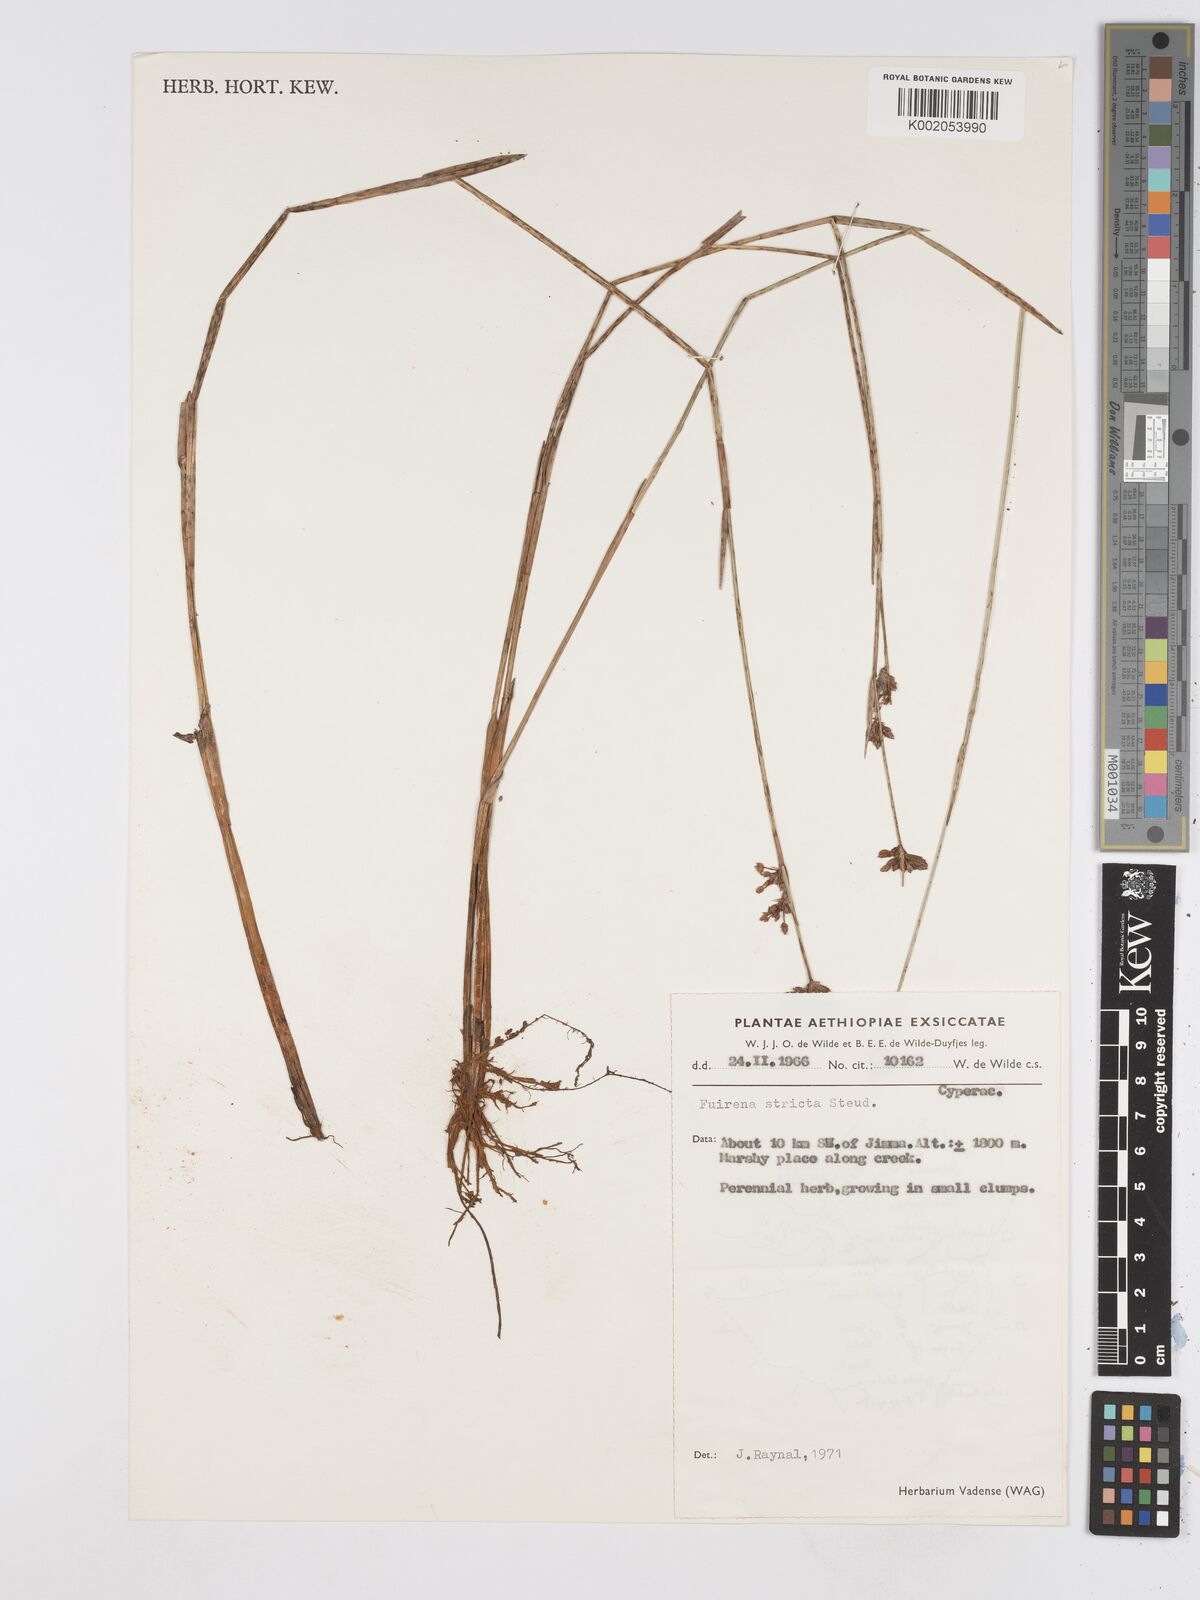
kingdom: Plantae
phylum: Tracheophyta
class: Liliopsida
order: Poales
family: Cyperaceae
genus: Fuirena
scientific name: Fuirena stricta
